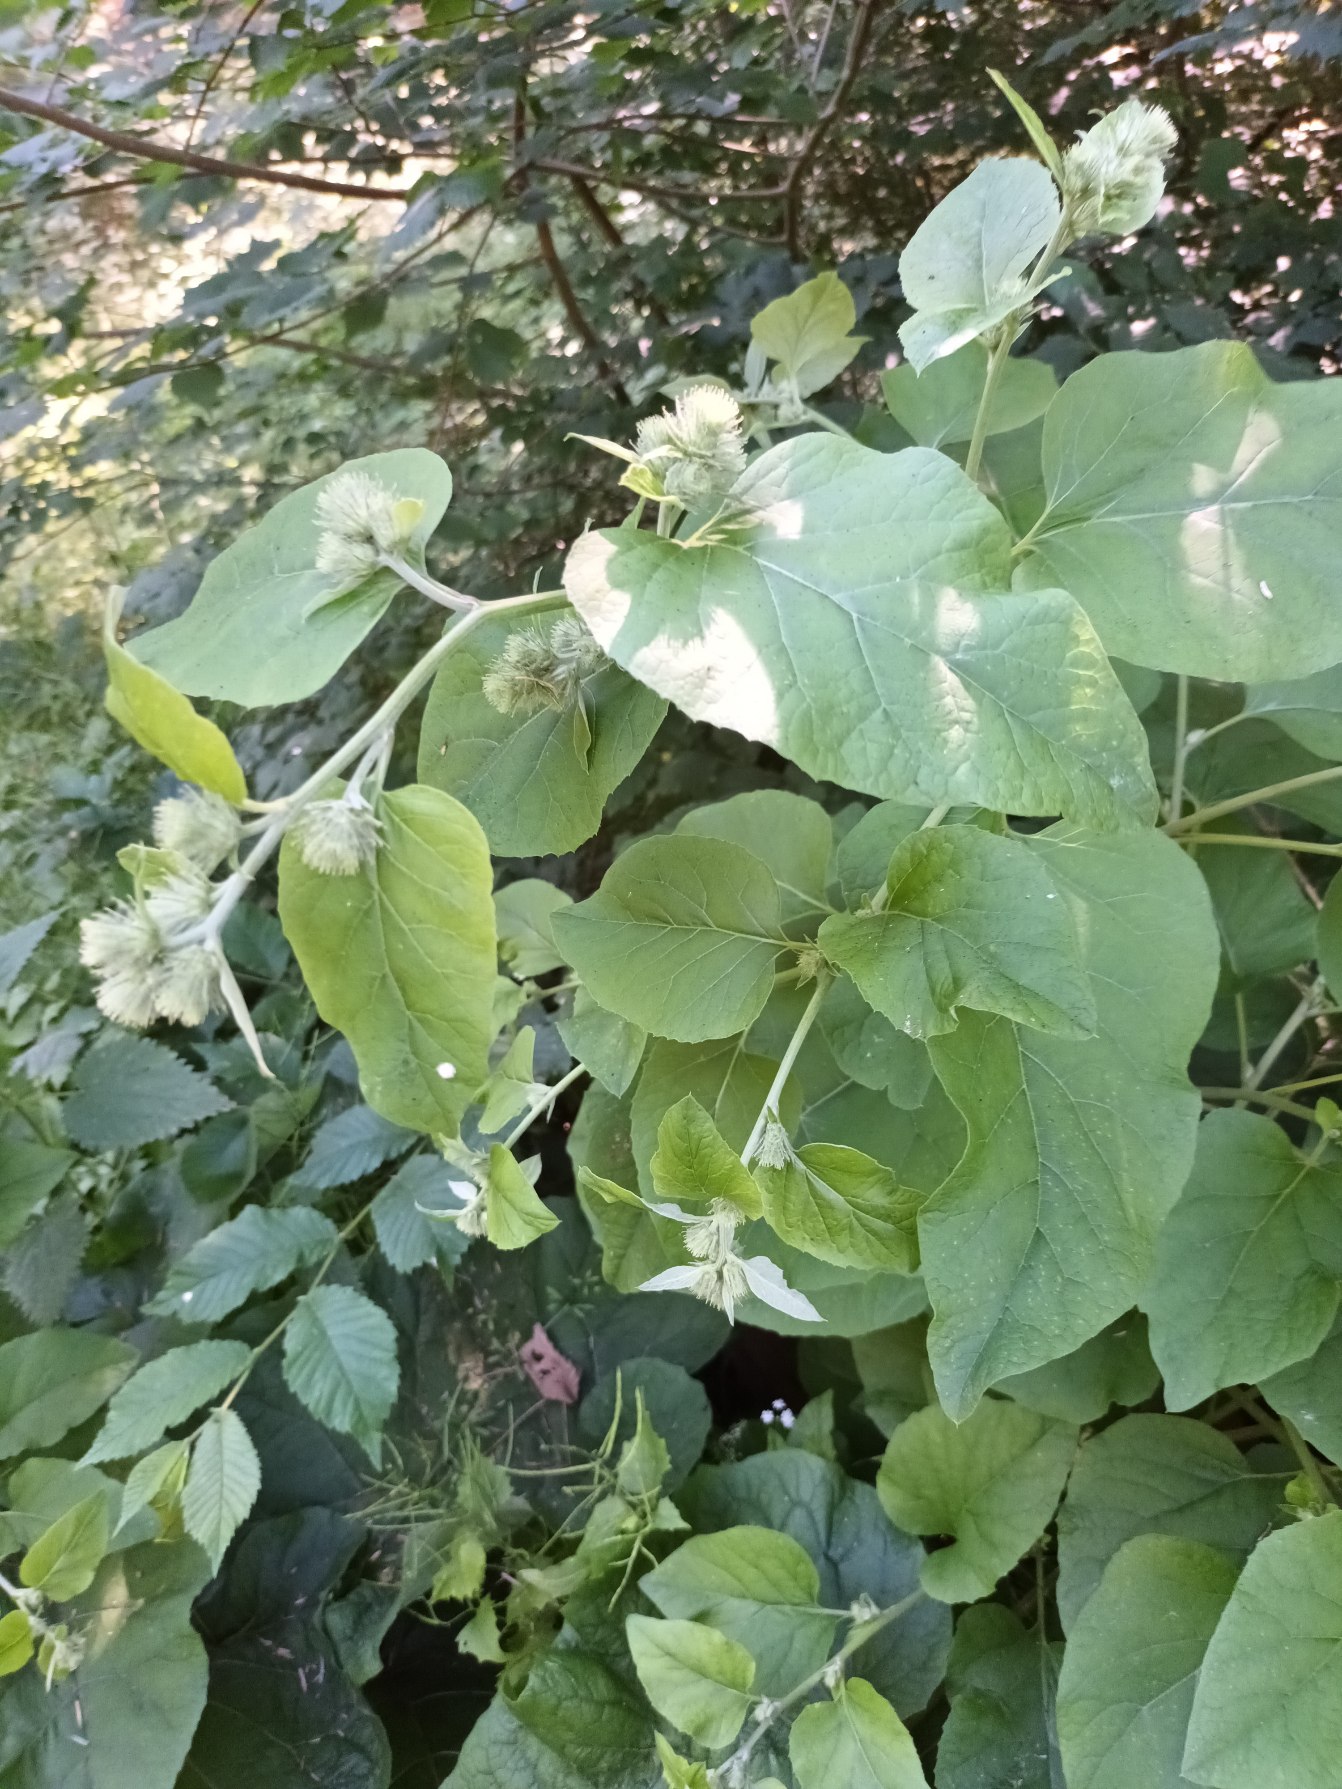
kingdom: Plantae
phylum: Tracheophyta
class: Magnoliopsida
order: Asterales
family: Asteraceae
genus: Arctium
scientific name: Arctium nemorosum
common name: Skov-burre
